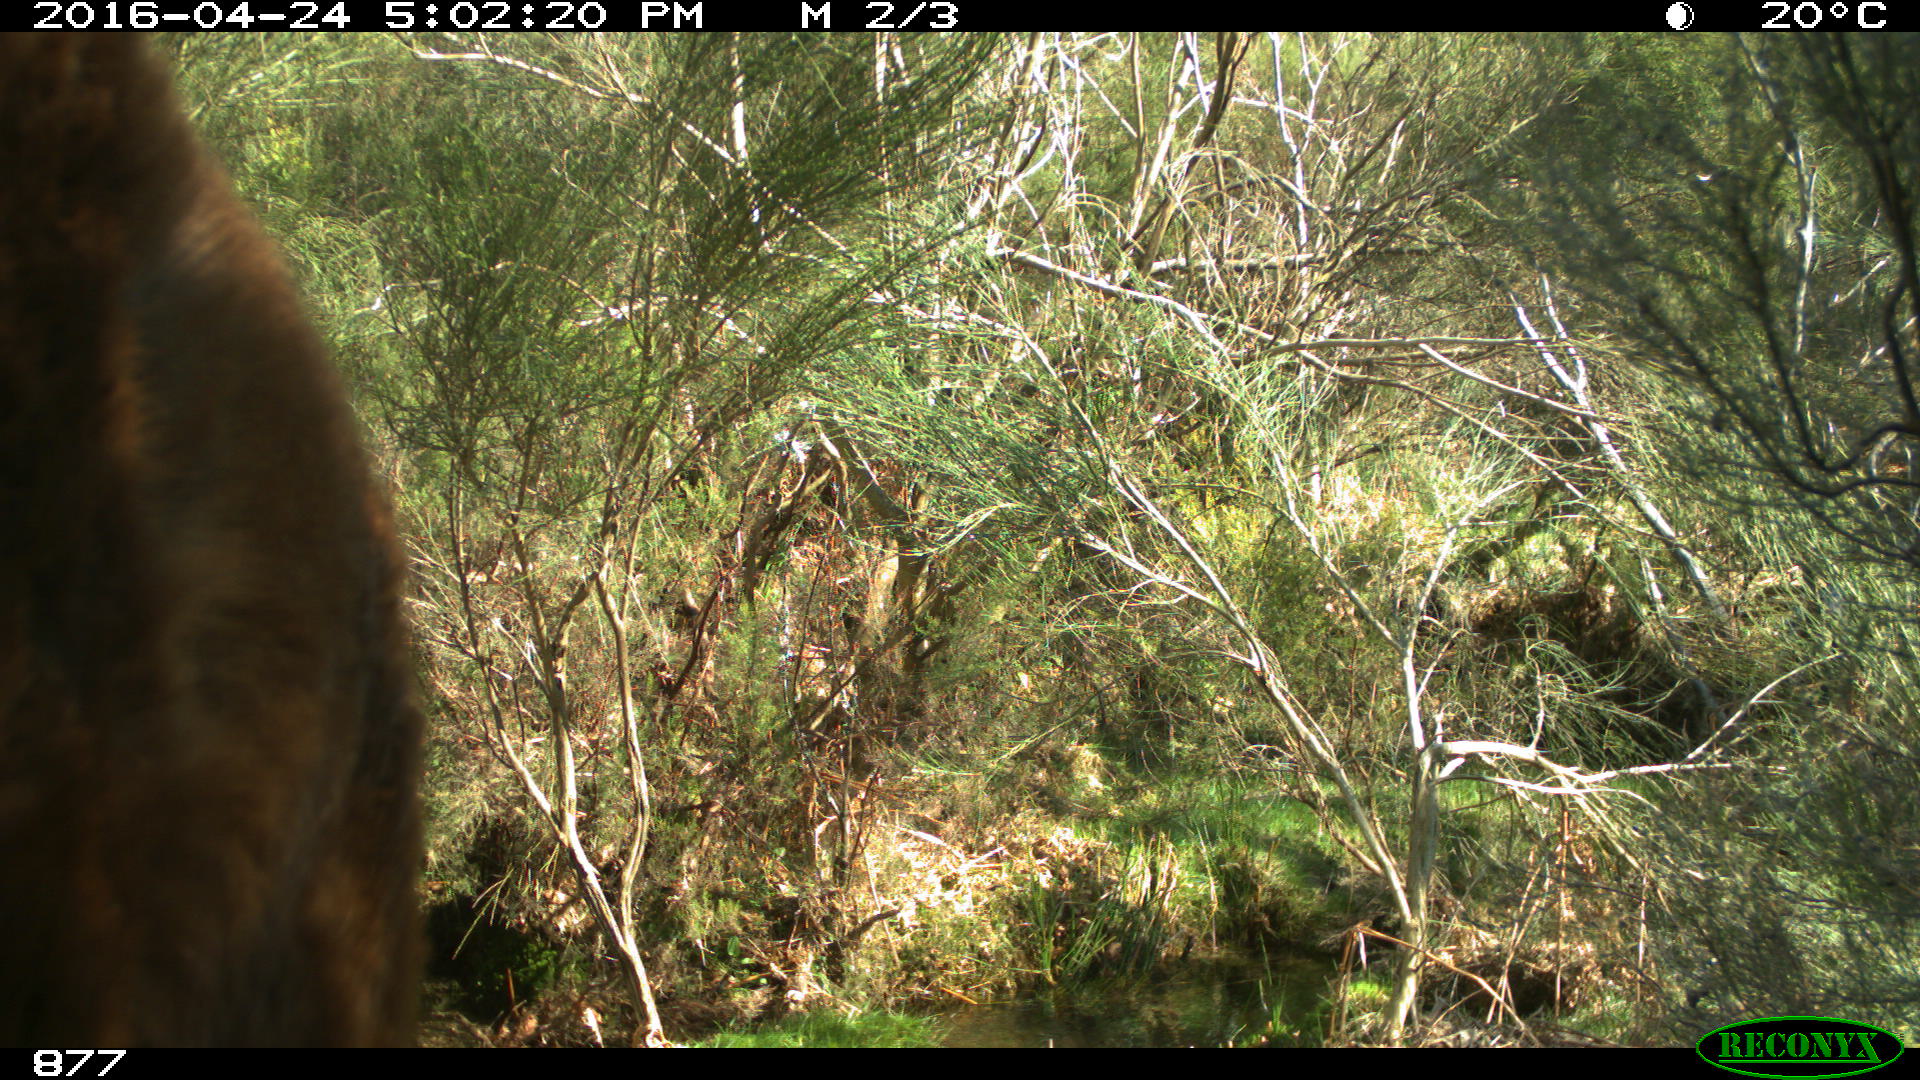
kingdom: Animalia
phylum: Chordata
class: Mammalia
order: Perissodactyla
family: Equidae
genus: Equus
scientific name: Equus caballus
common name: Horse
